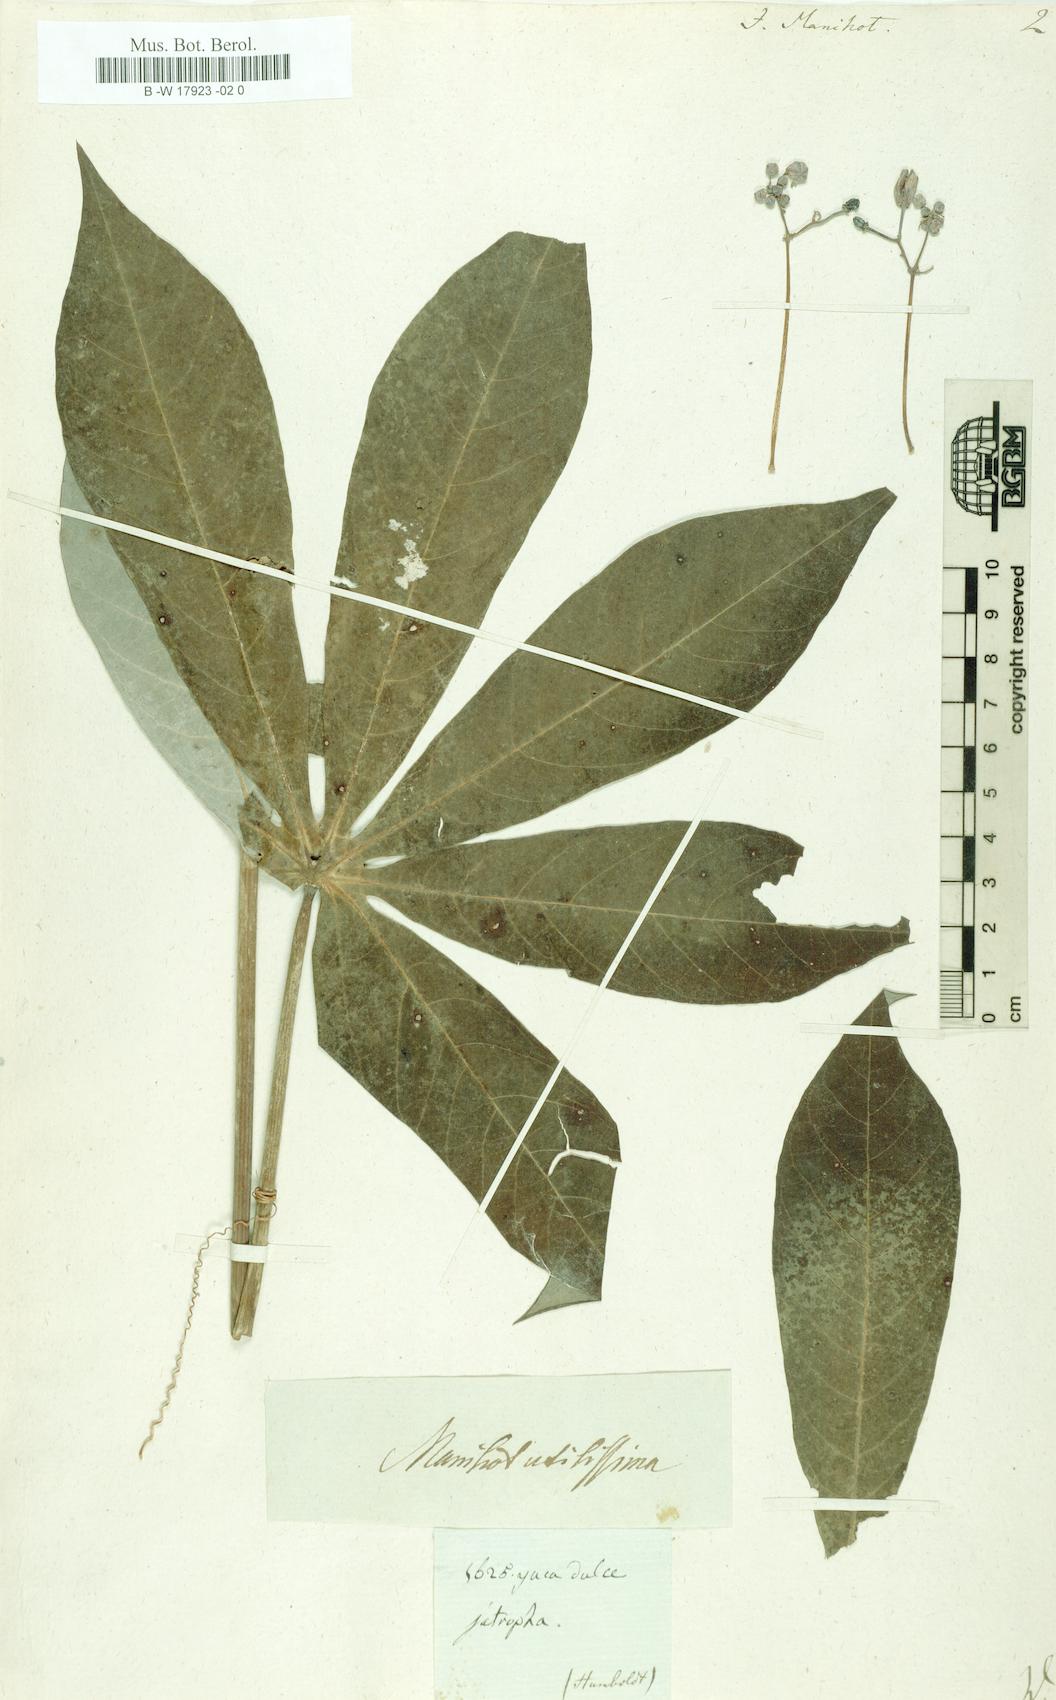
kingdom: Plantae
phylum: Tracheophyta
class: Magnoliopsida
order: Malpighiales
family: Euphorbiaceae
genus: Manihot
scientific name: Manihot esculenta
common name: Cassava
